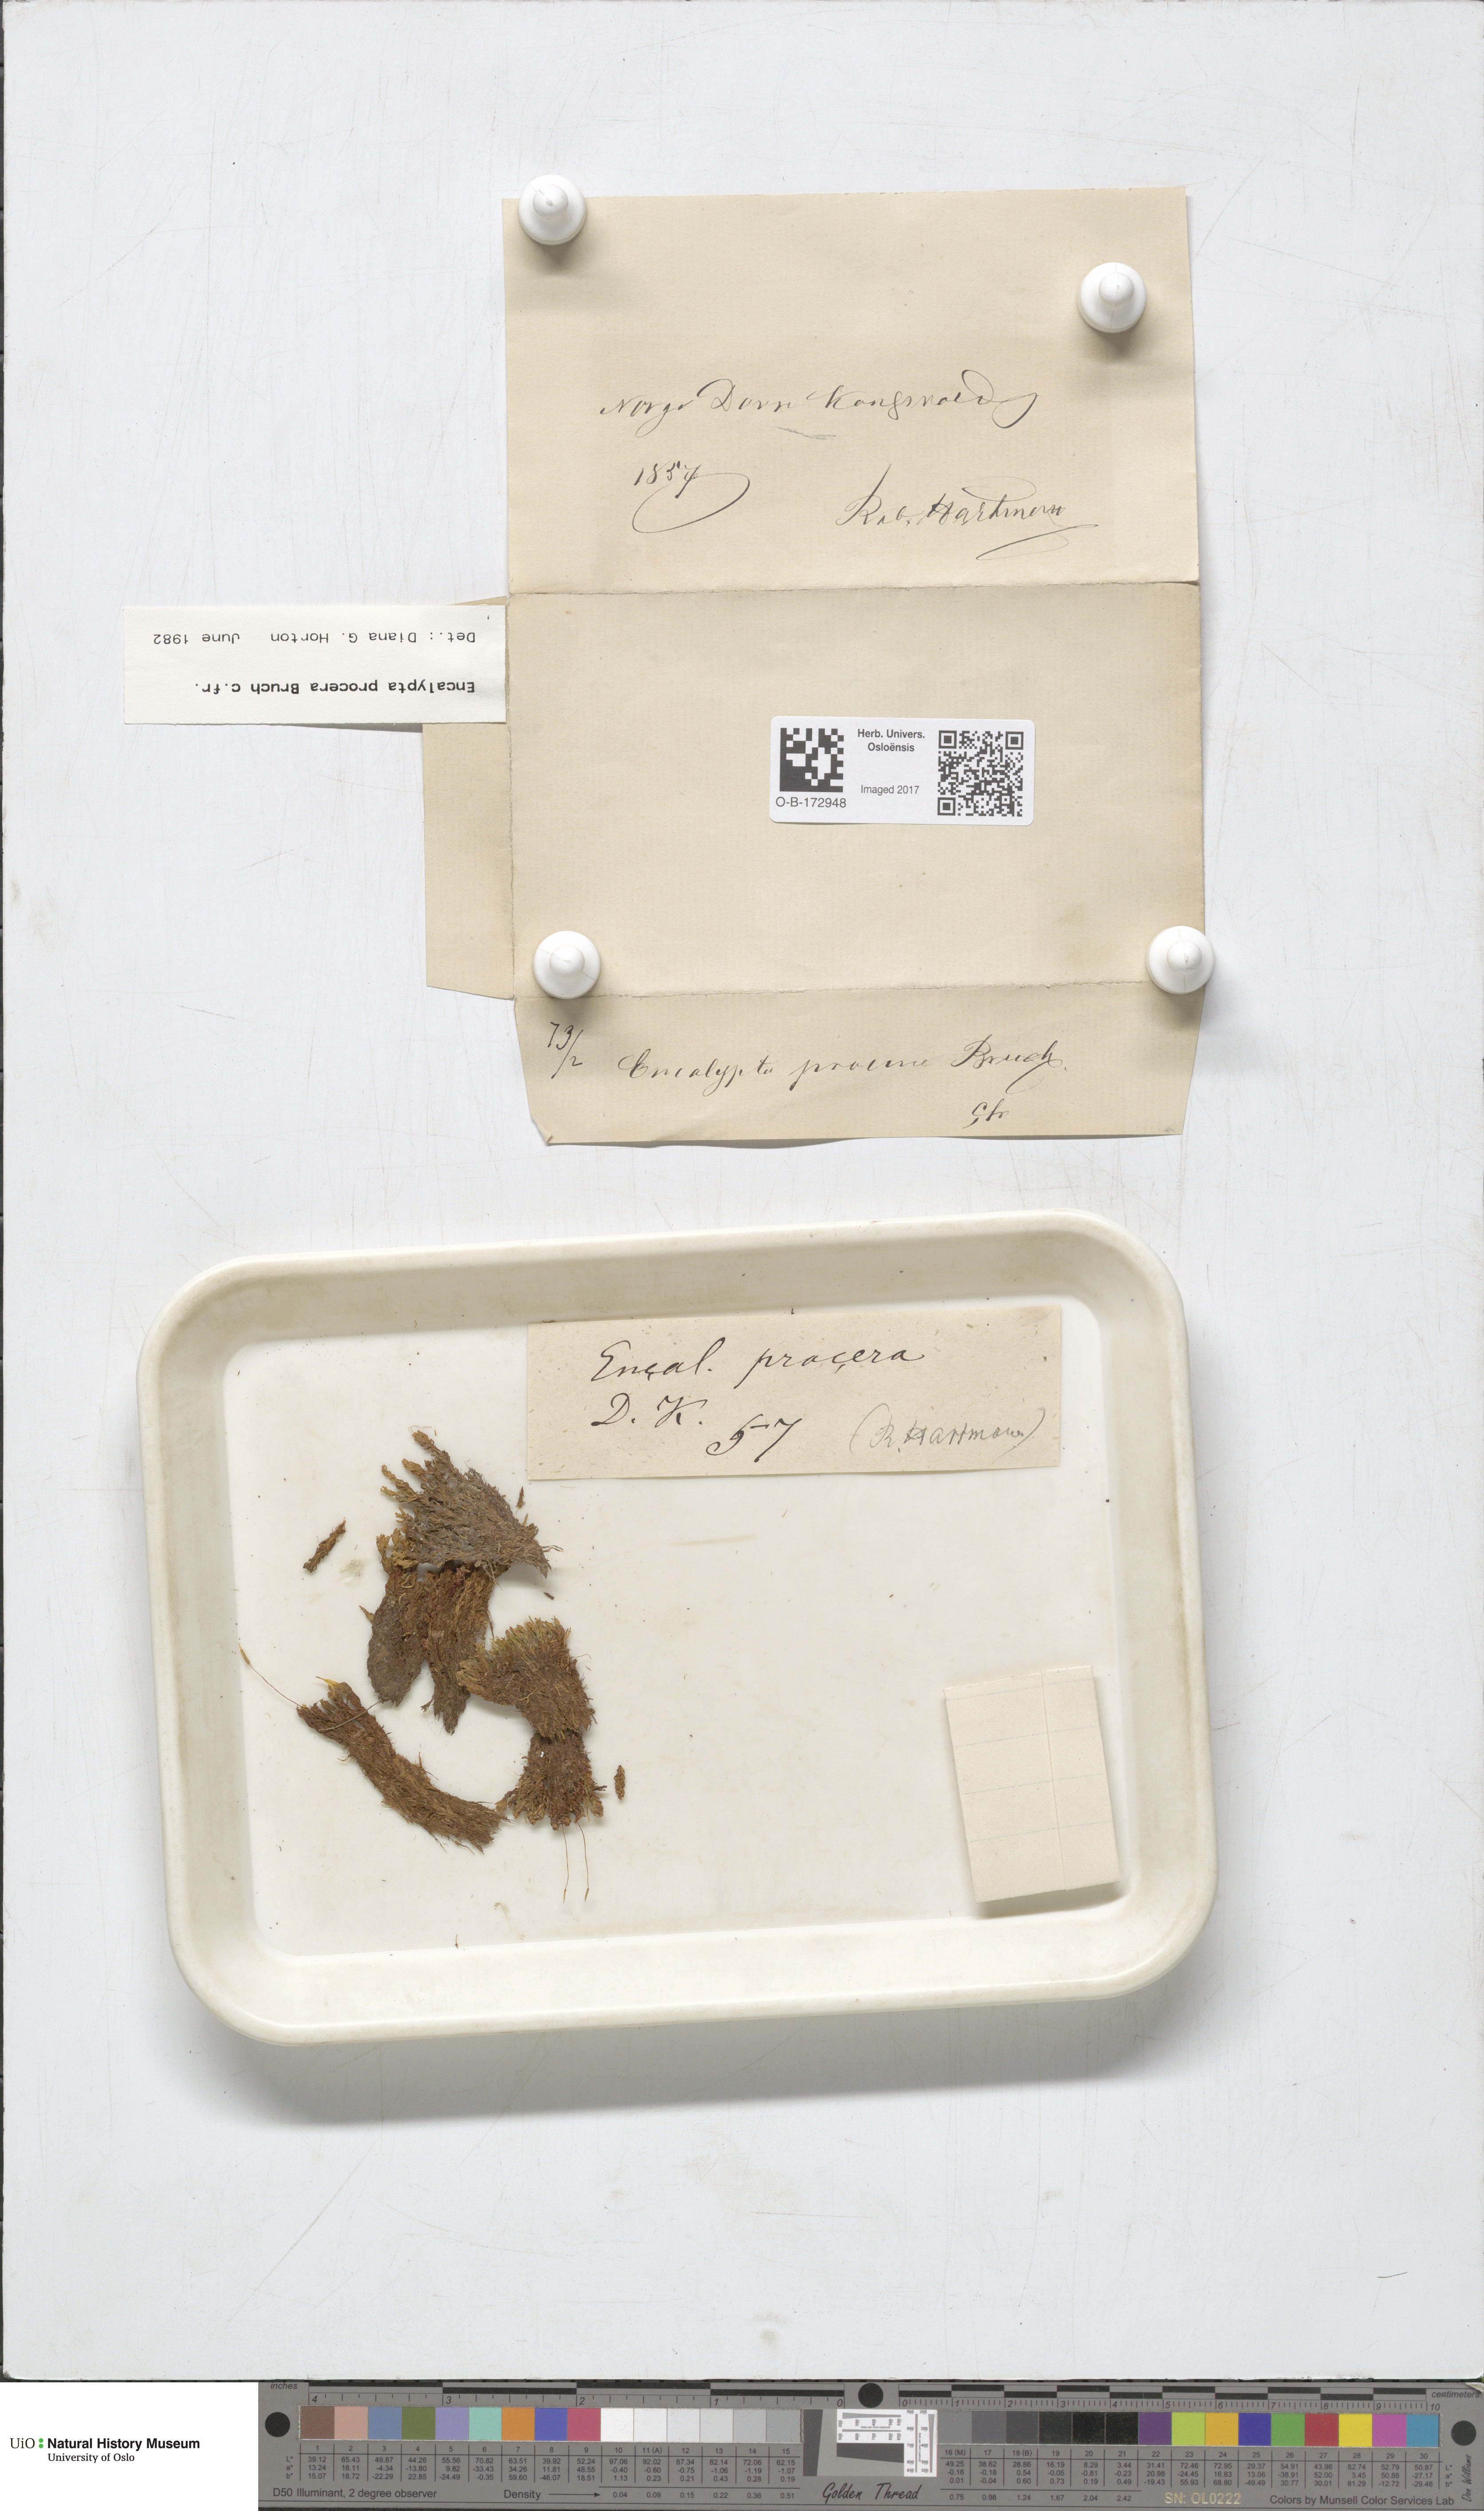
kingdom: Plantae
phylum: Bryophyta
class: Bryopsida
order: Encalyptales
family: Encalyptaceae
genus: Encalypta
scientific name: Encalypta procera
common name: Spiral extinguisher moss
